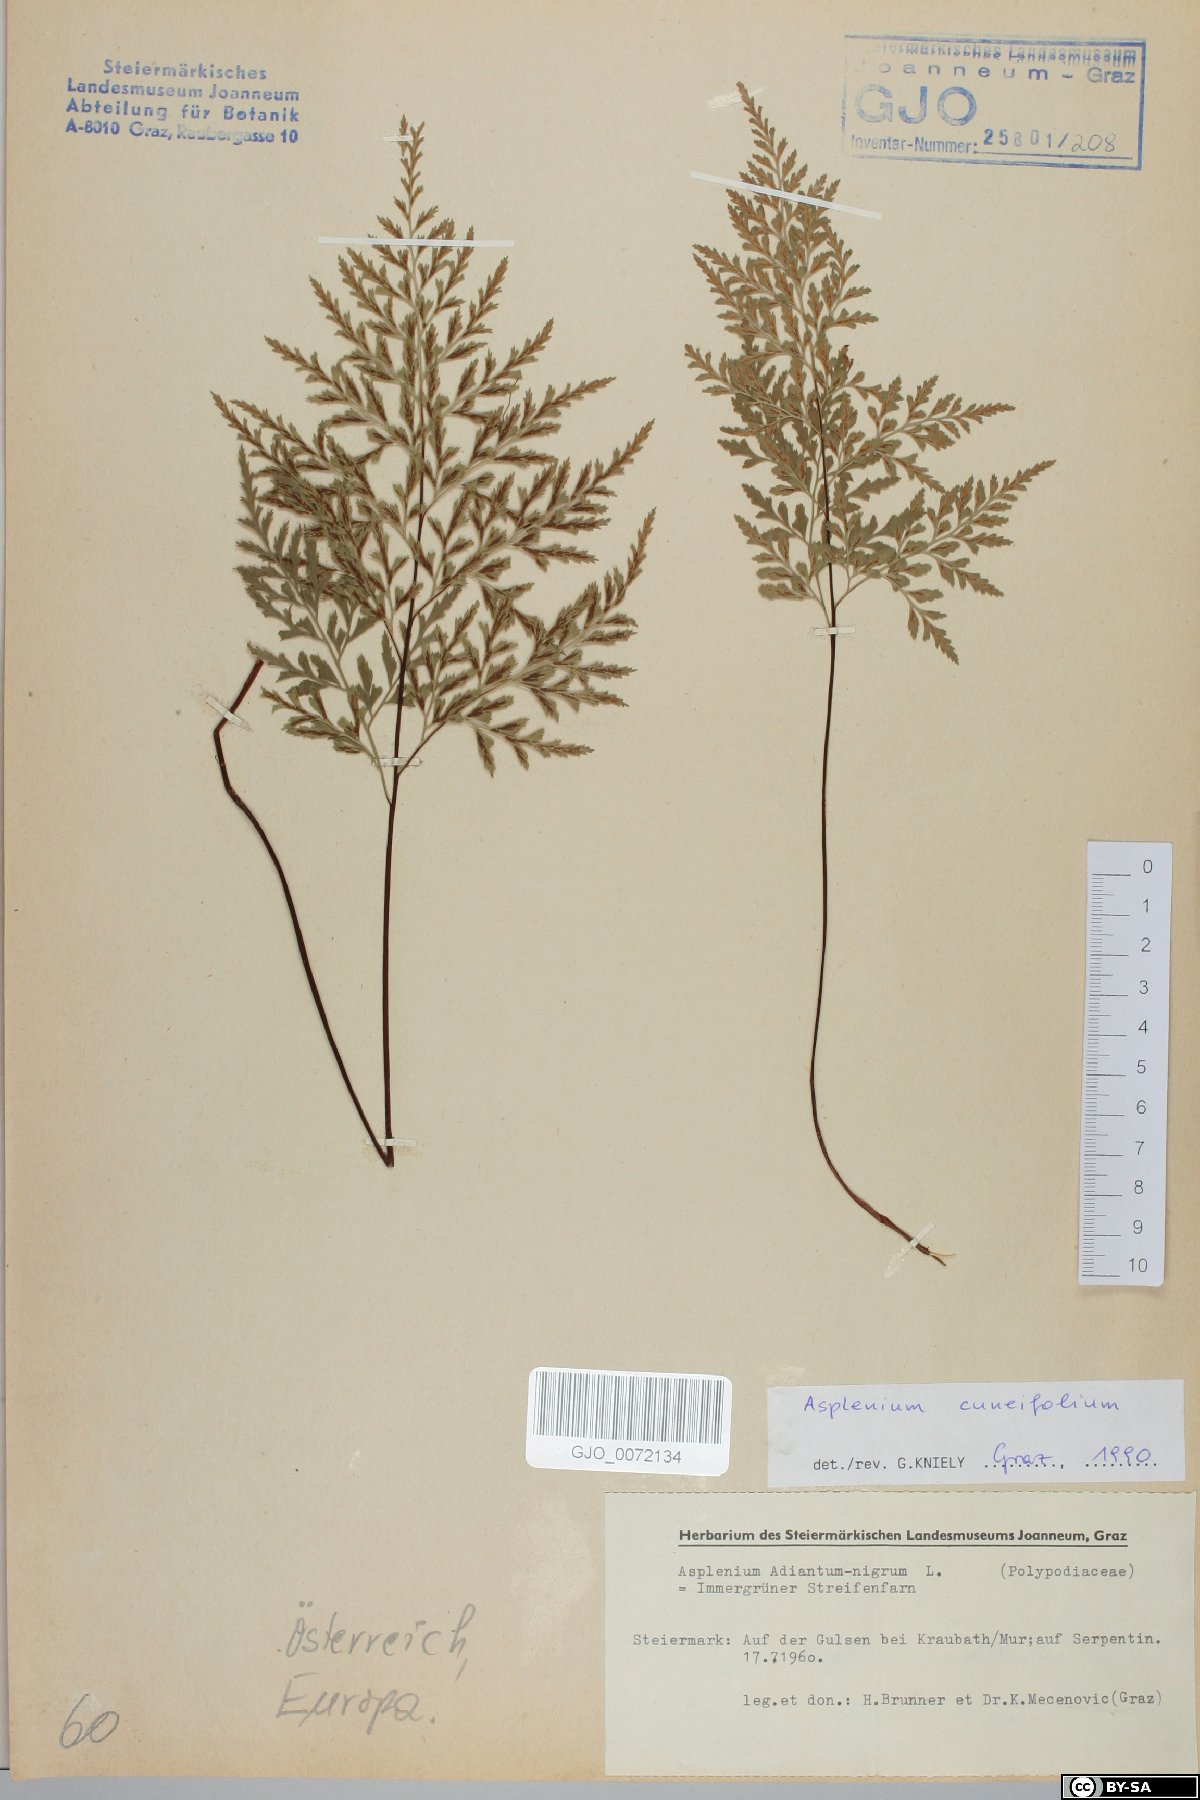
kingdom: Plantae
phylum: Tracheophyta
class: Polypodiopsida
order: Polypodiales
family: Aspleniaceae
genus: Asplenium
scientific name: Asplenium cuneifolium
